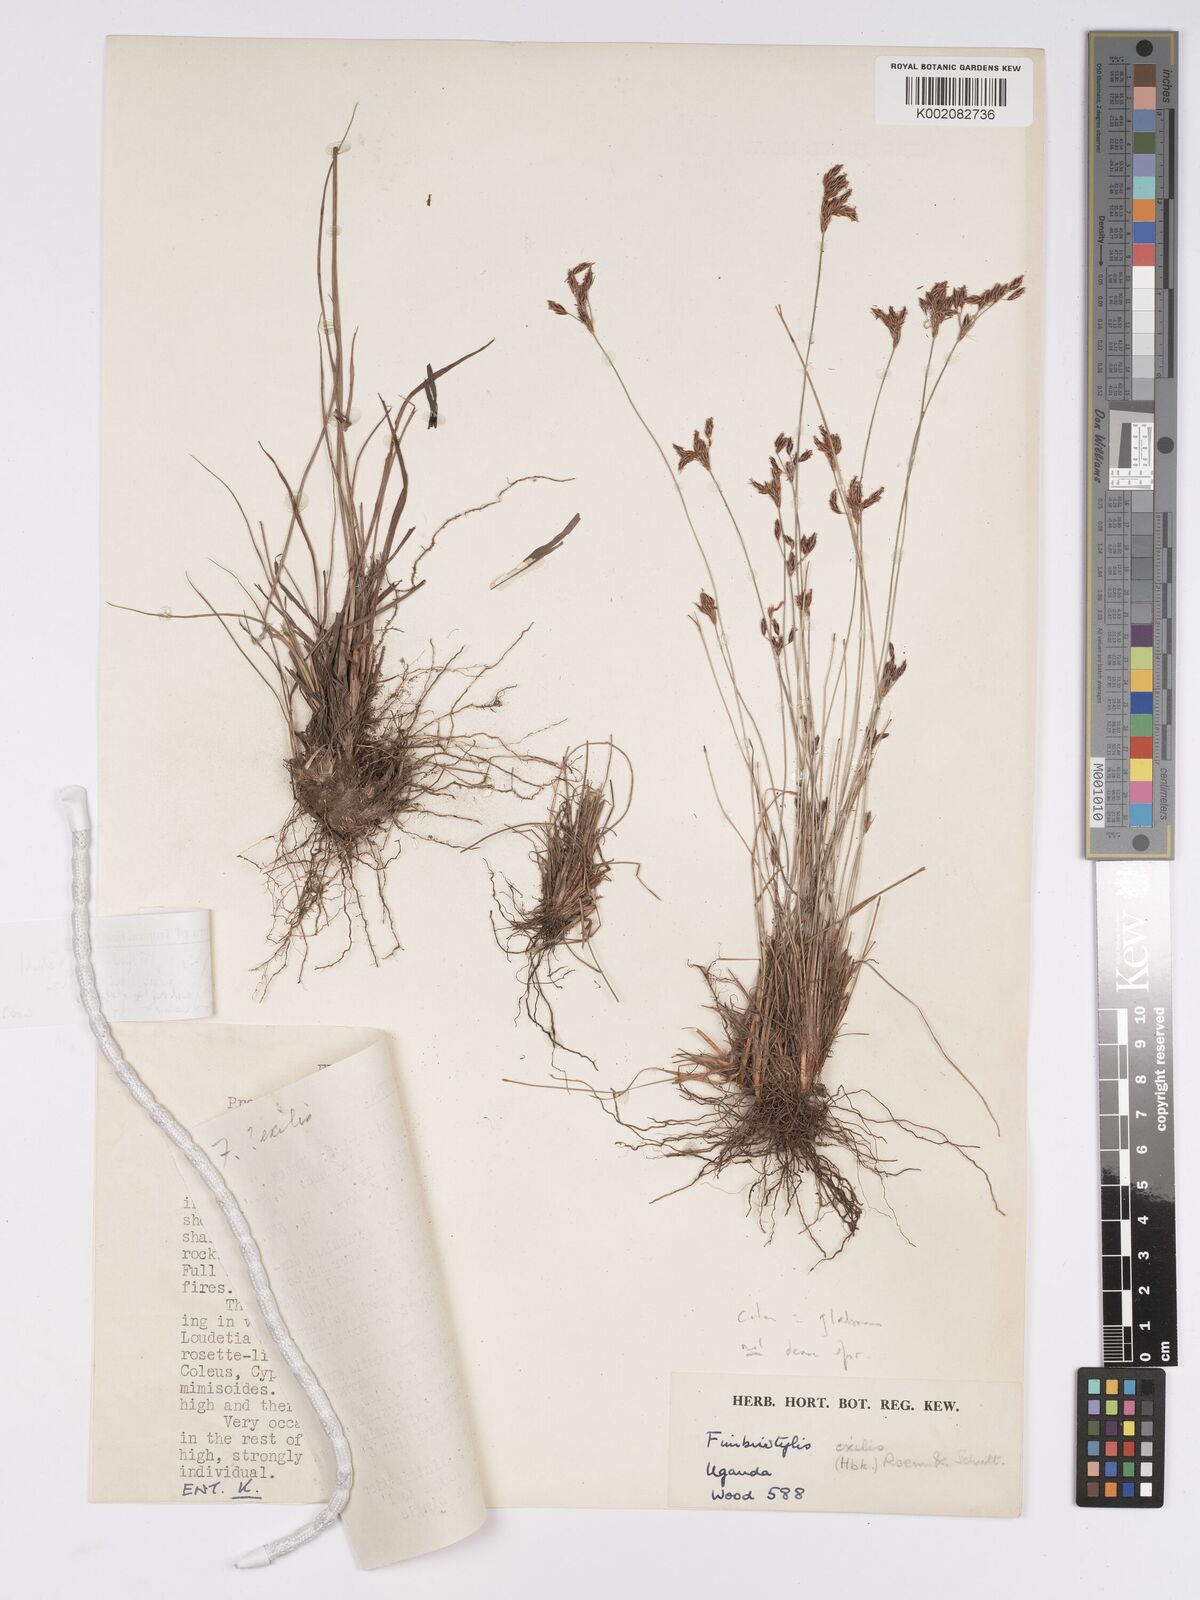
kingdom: Plantae
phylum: Tracheophyta
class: Magnoliopsida
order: Asterales
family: Asteraceae
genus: Bulbostylis
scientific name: Bulbostylis
